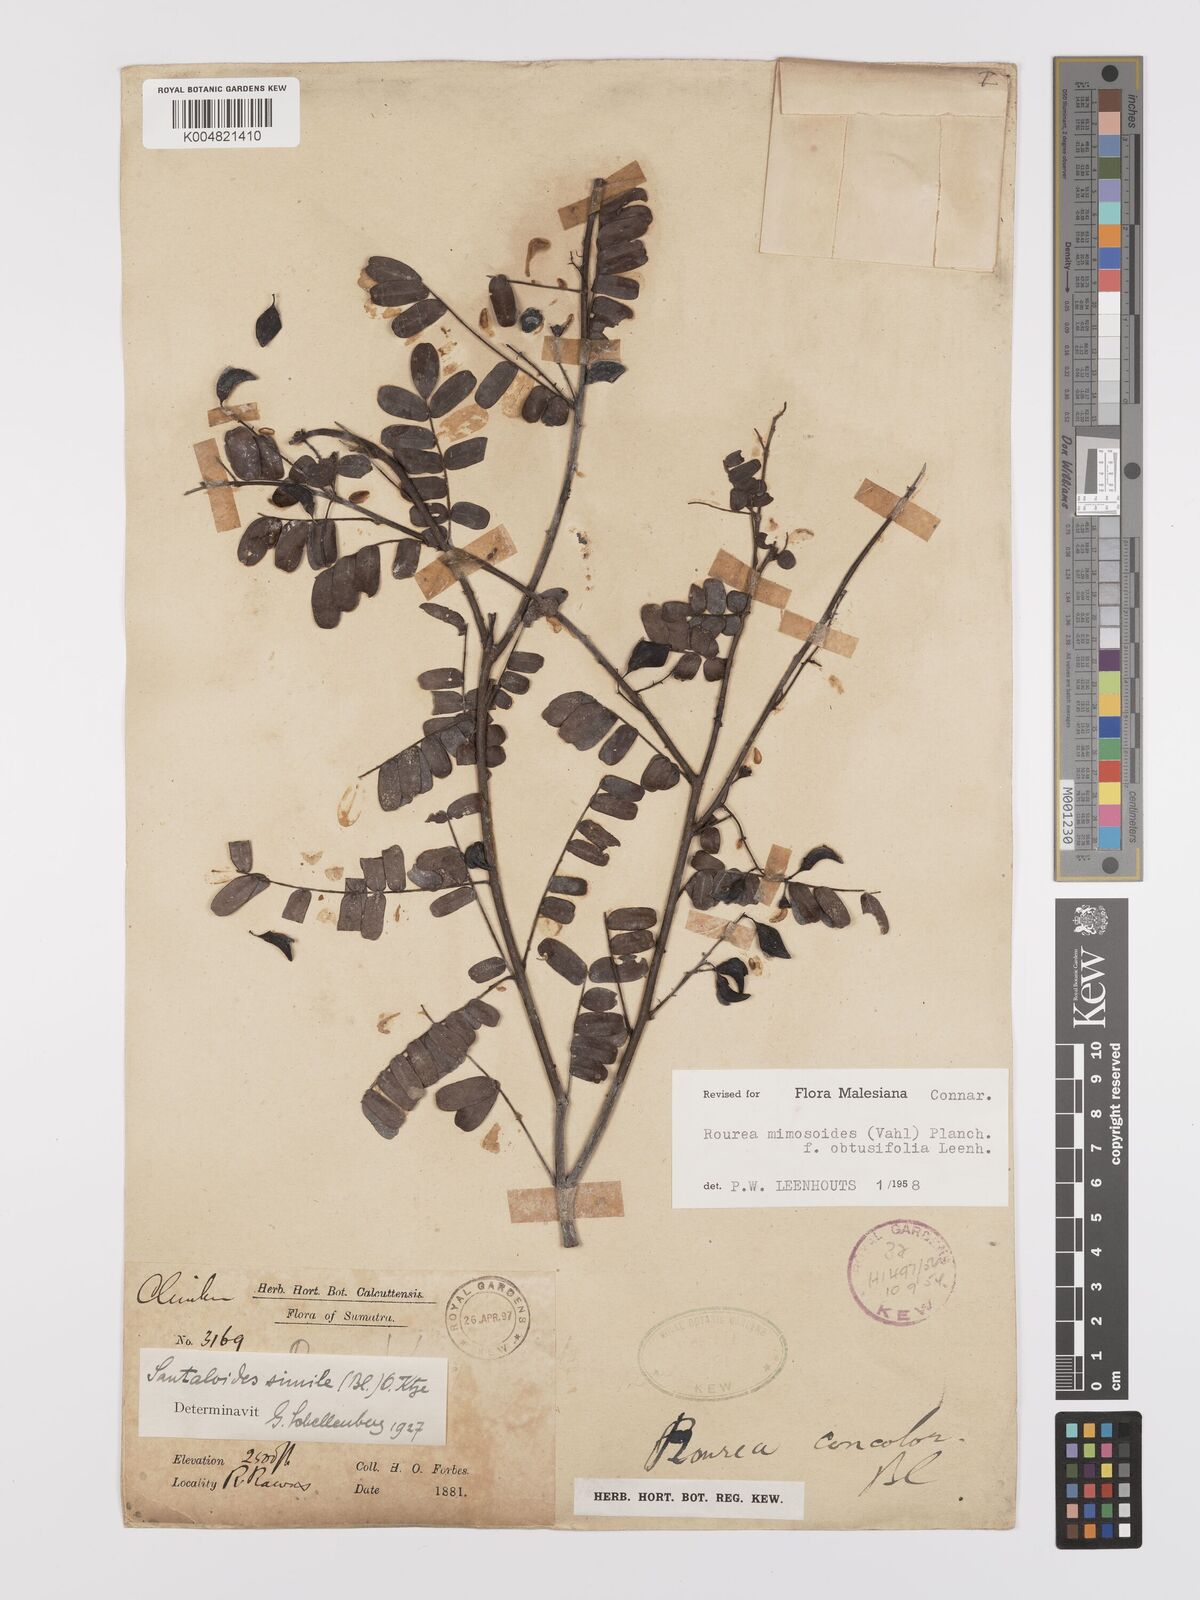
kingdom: Plantae
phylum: Tracheophyta
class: Magnoliopsida
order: Oxalidales
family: Connaraceae
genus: Rourea
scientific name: Rourea mimosoides
